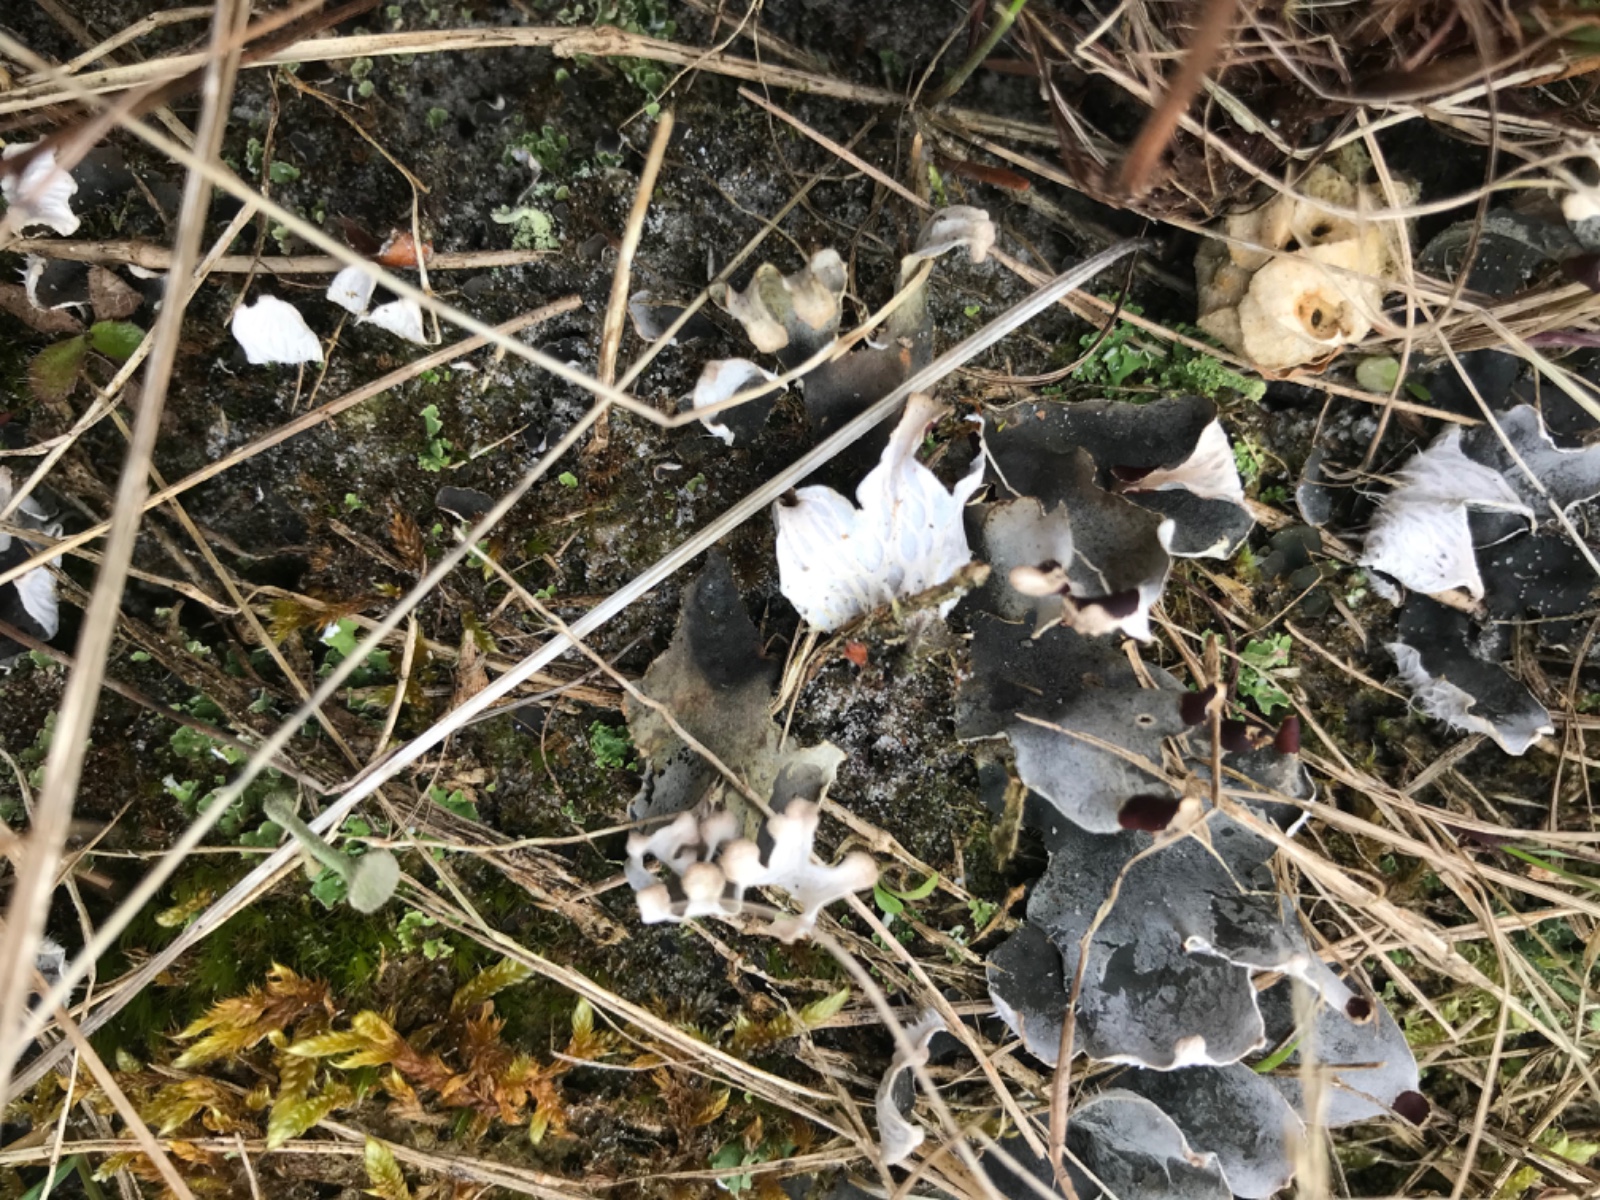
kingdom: Fungi
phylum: Ascomycota
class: Lecanoromycetes
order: Peltigerales
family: Peltigeraceae
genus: Peltigera
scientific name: Peltigera
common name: skjoldlav
